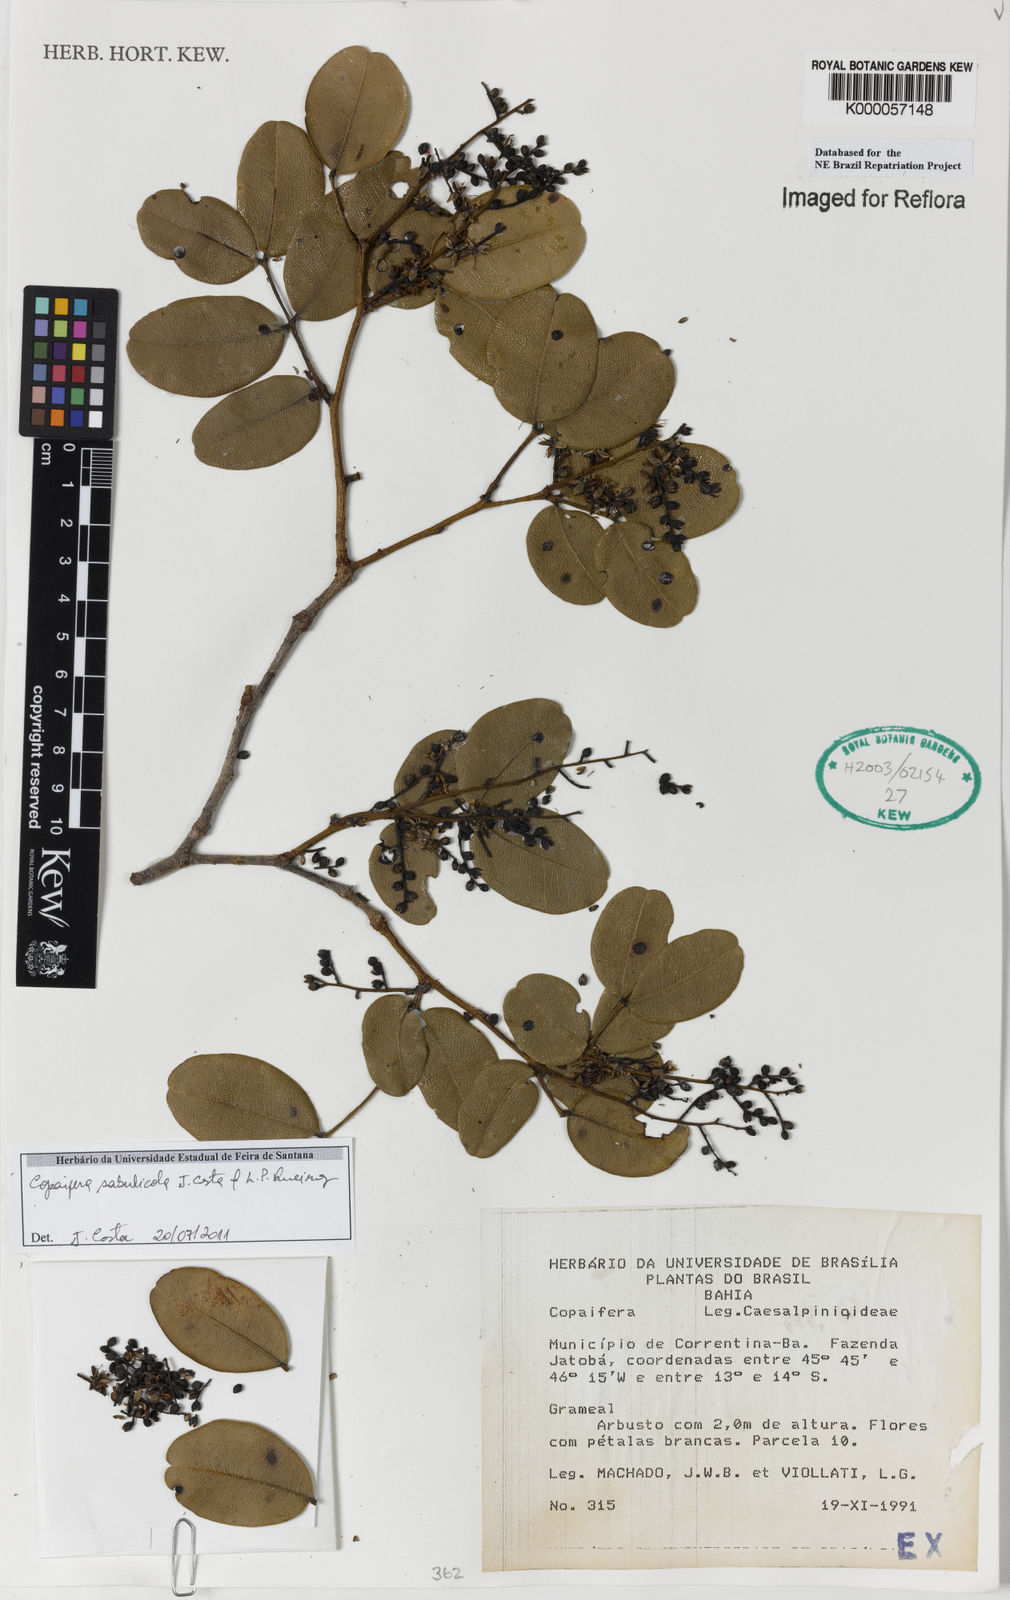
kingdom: Plantae
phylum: Tracheophyta
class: Magnoliopsida
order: Fabales
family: Fabaceae
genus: Copaifera
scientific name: Copaifera sabulicola
